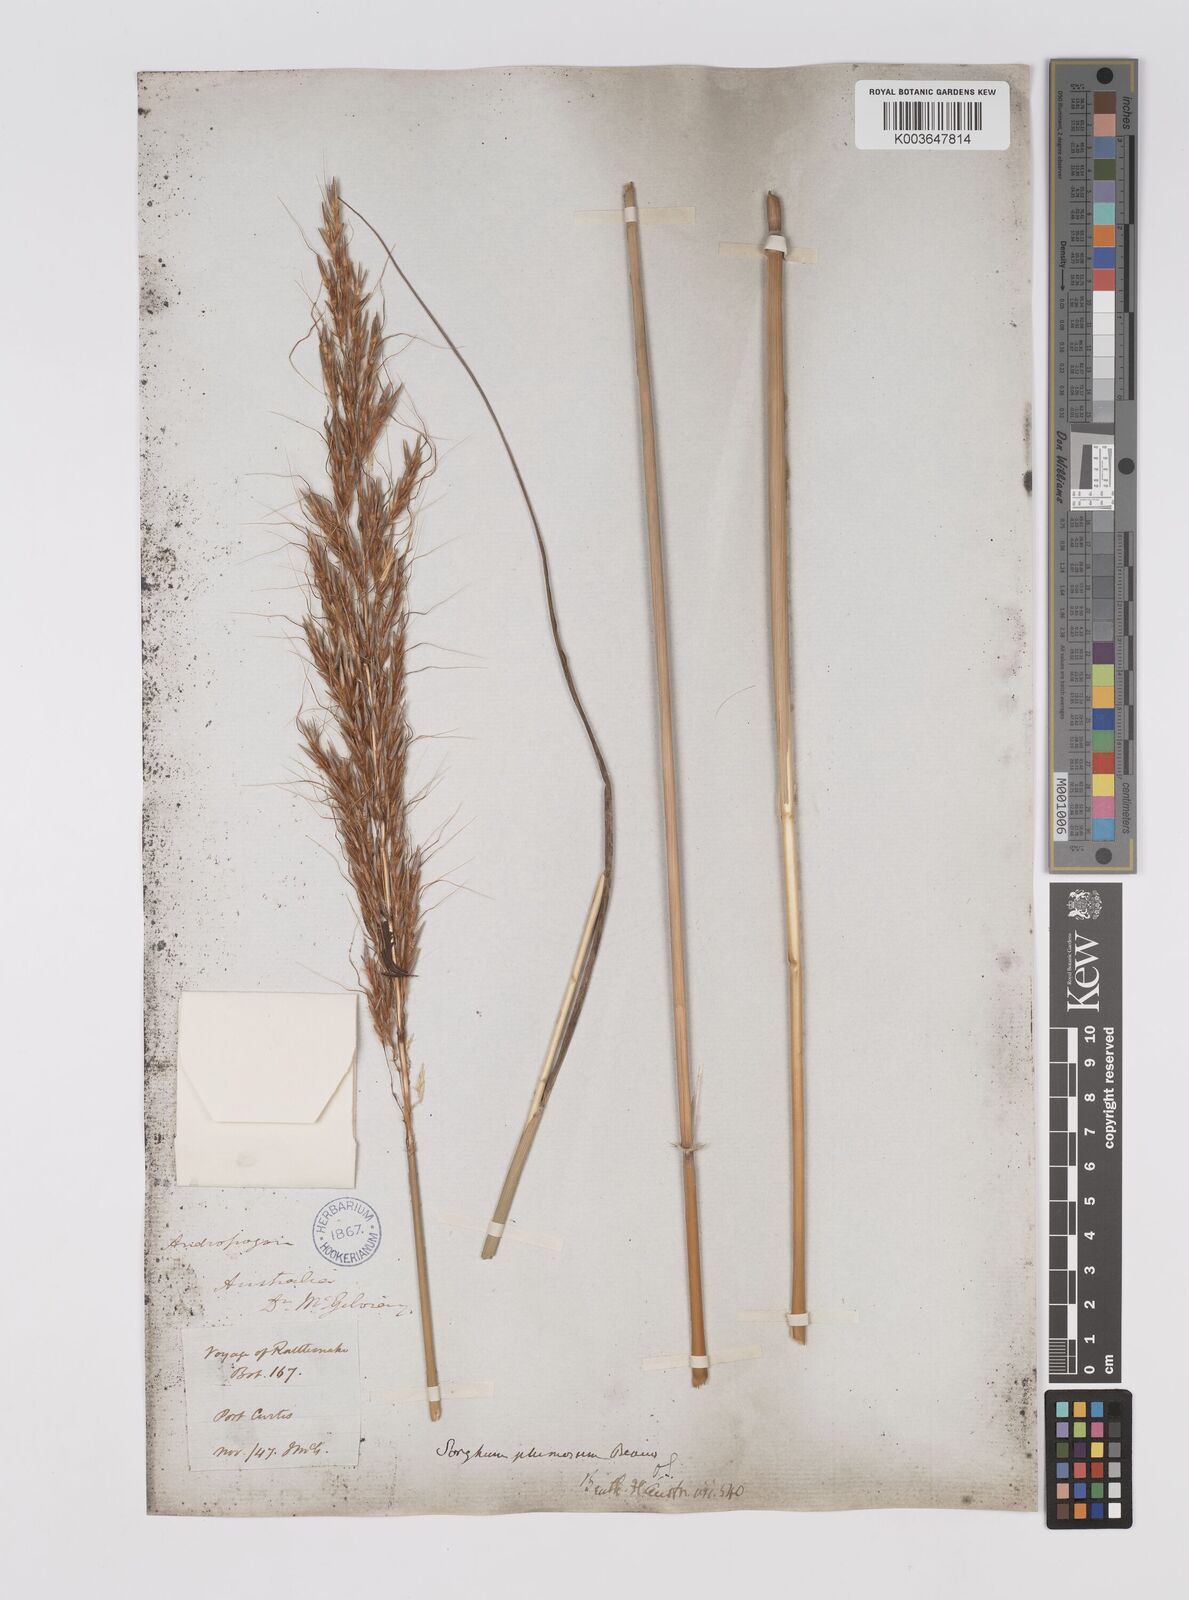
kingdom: Plantae
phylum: Tracheophyta
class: Liliopsida
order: Poales
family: Poaceae
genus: Sarga
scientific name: Sarga plumosa
